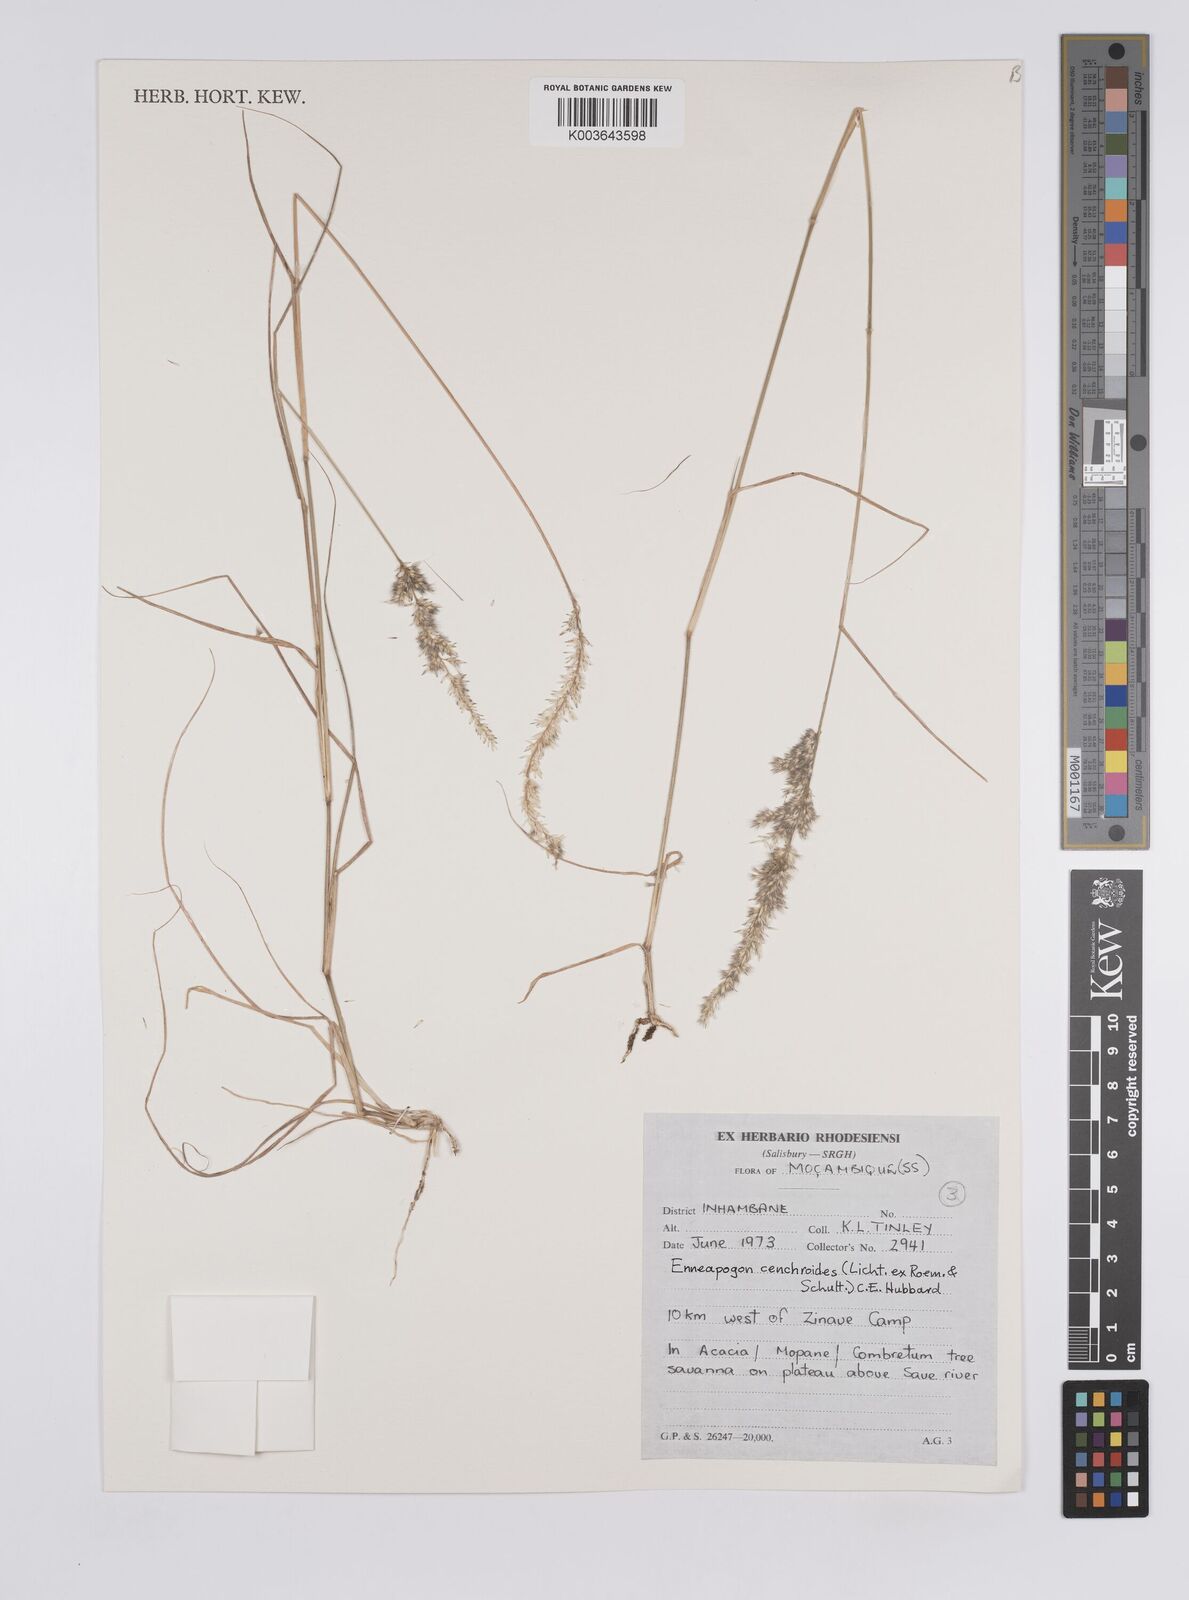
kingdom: Plantae
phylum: Tracheophyta
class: Liliopsida
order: Poales
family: Poaceae
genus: Enneapogon
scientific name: Enneapogon cenchroides
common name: Soft feather pappusgrass
